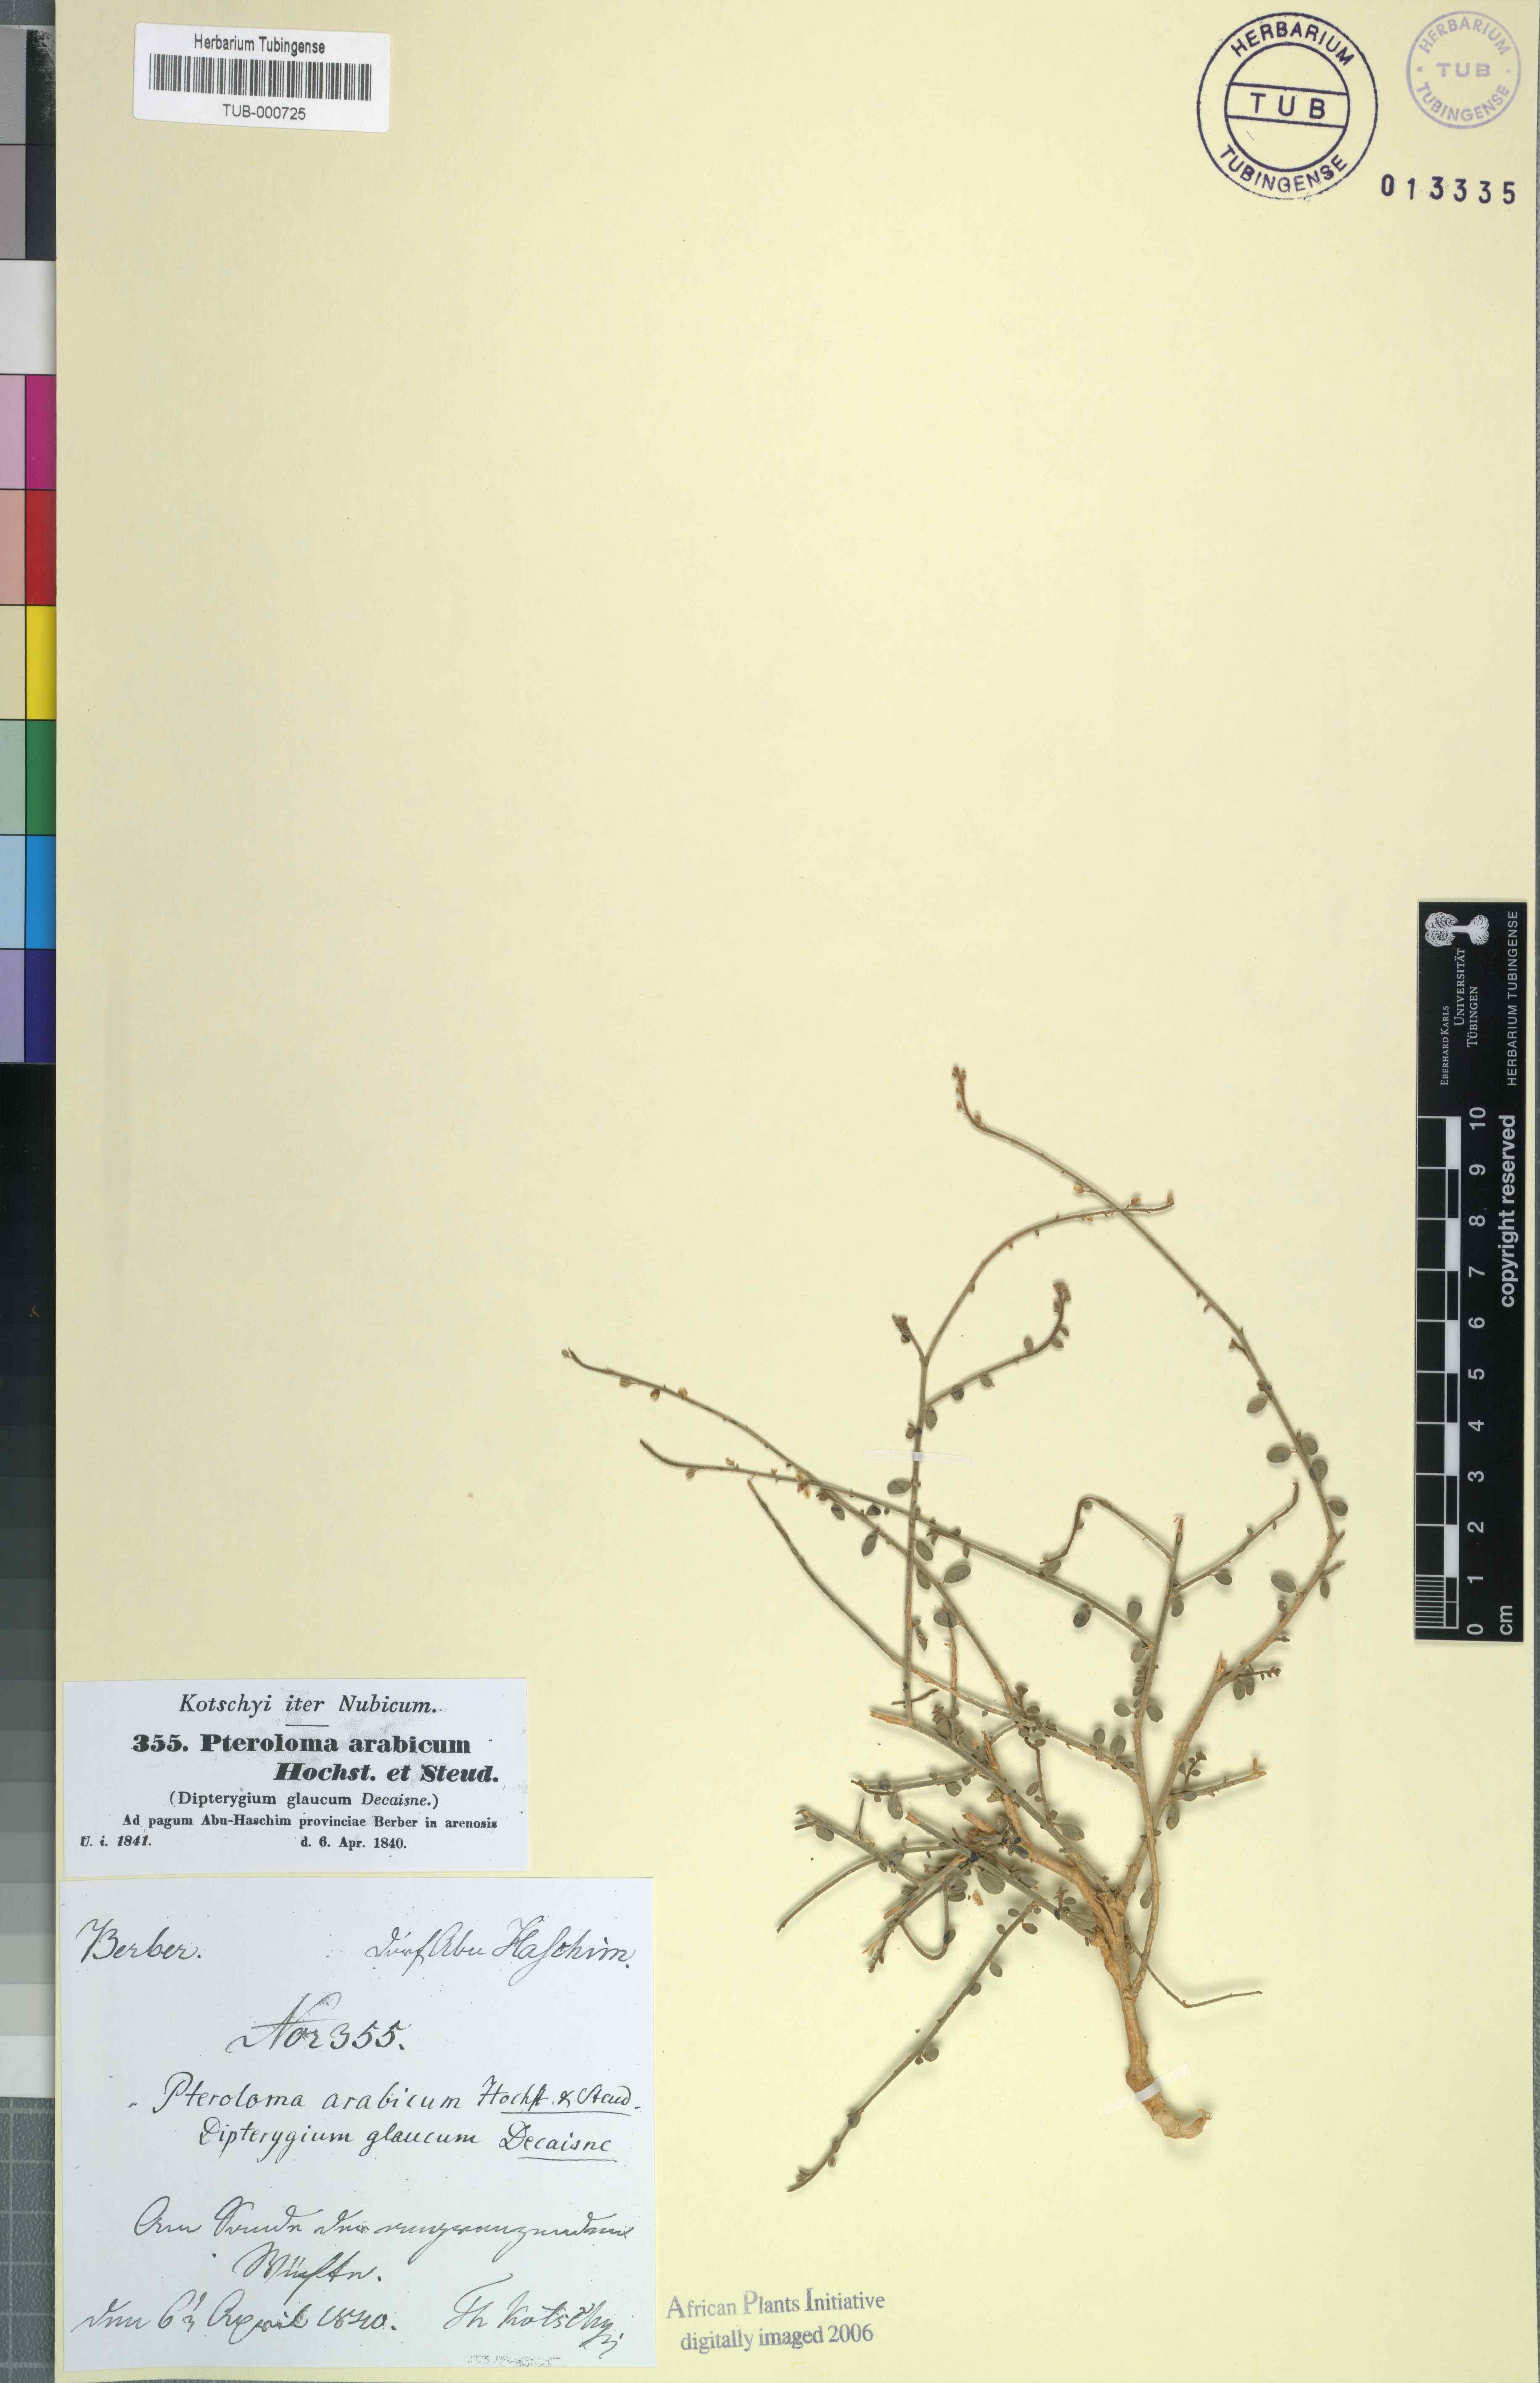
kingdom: Plantae
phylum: Tracheophyta
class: Magnoliopsida
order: Brassicales
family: Cleomaceae
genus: Dipterygium
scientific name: Dipterygium glaucum
